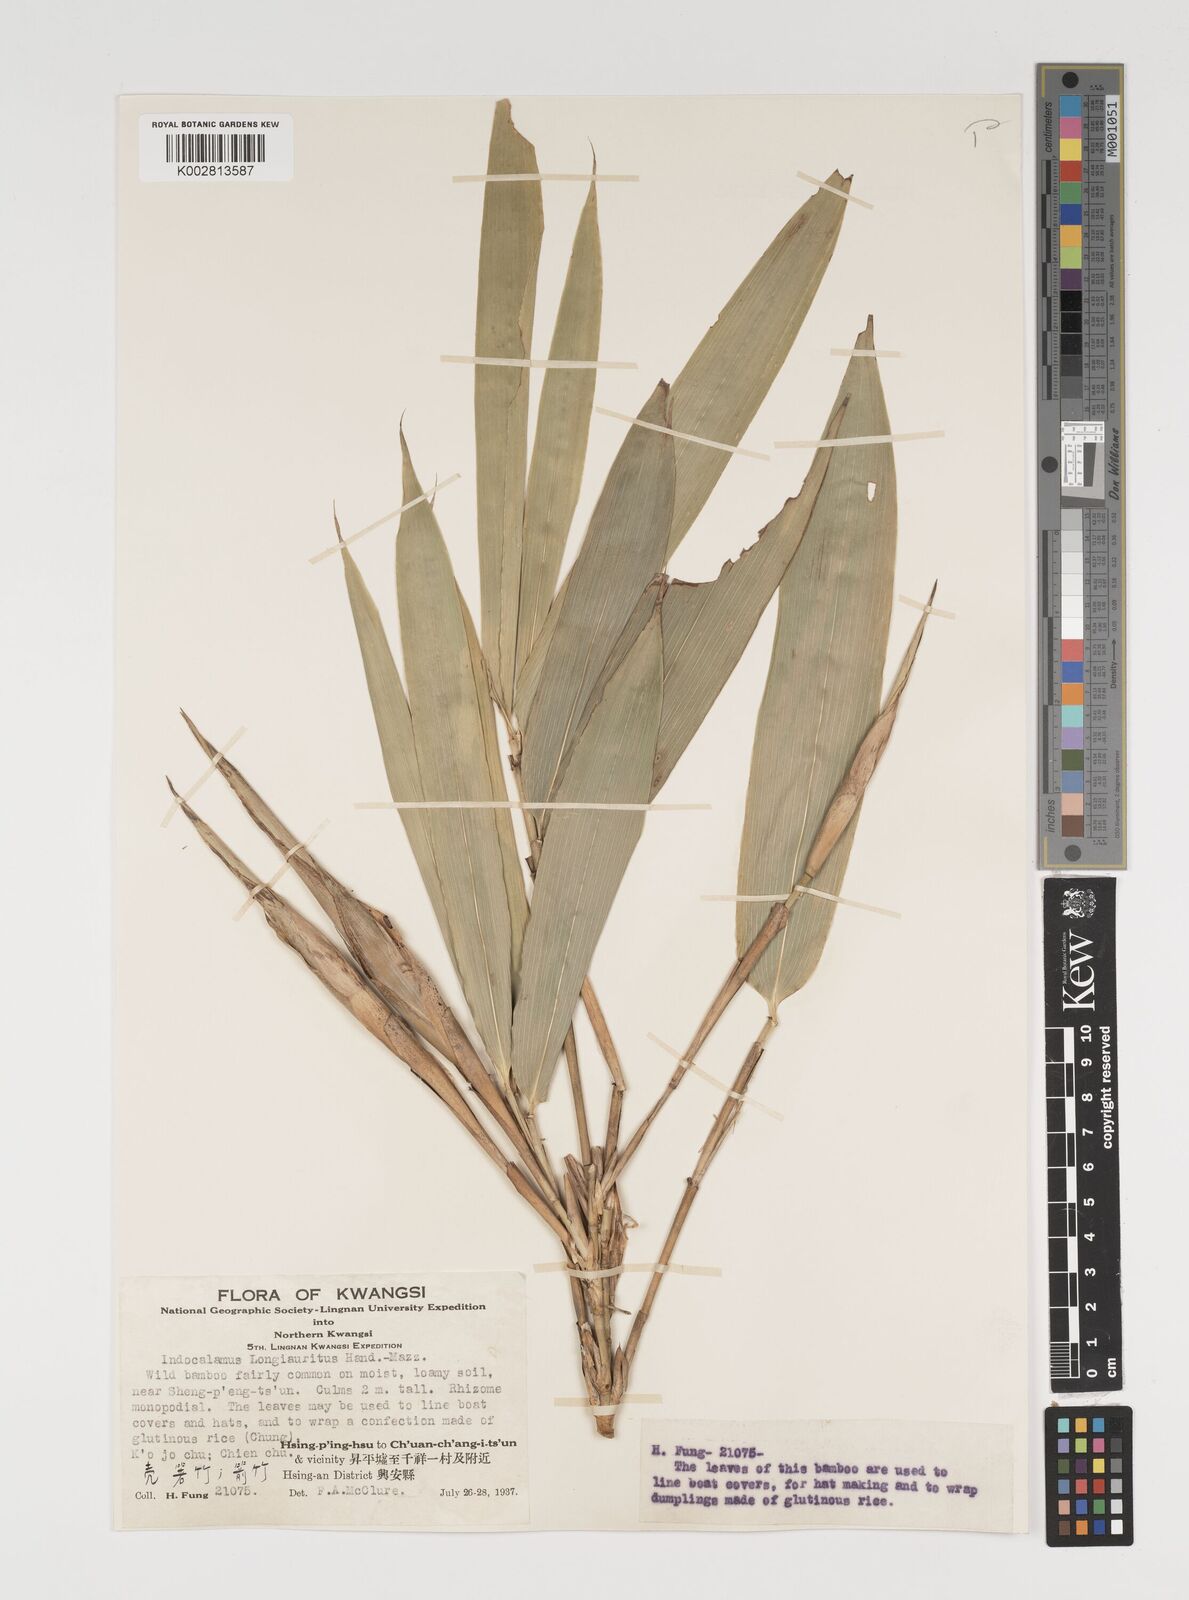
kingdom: Plantae
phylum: Tracheophyta
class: Liliopsida
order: Poales
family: Poaceae
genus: Indocalamus
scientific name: Indocalamus longiauritus
